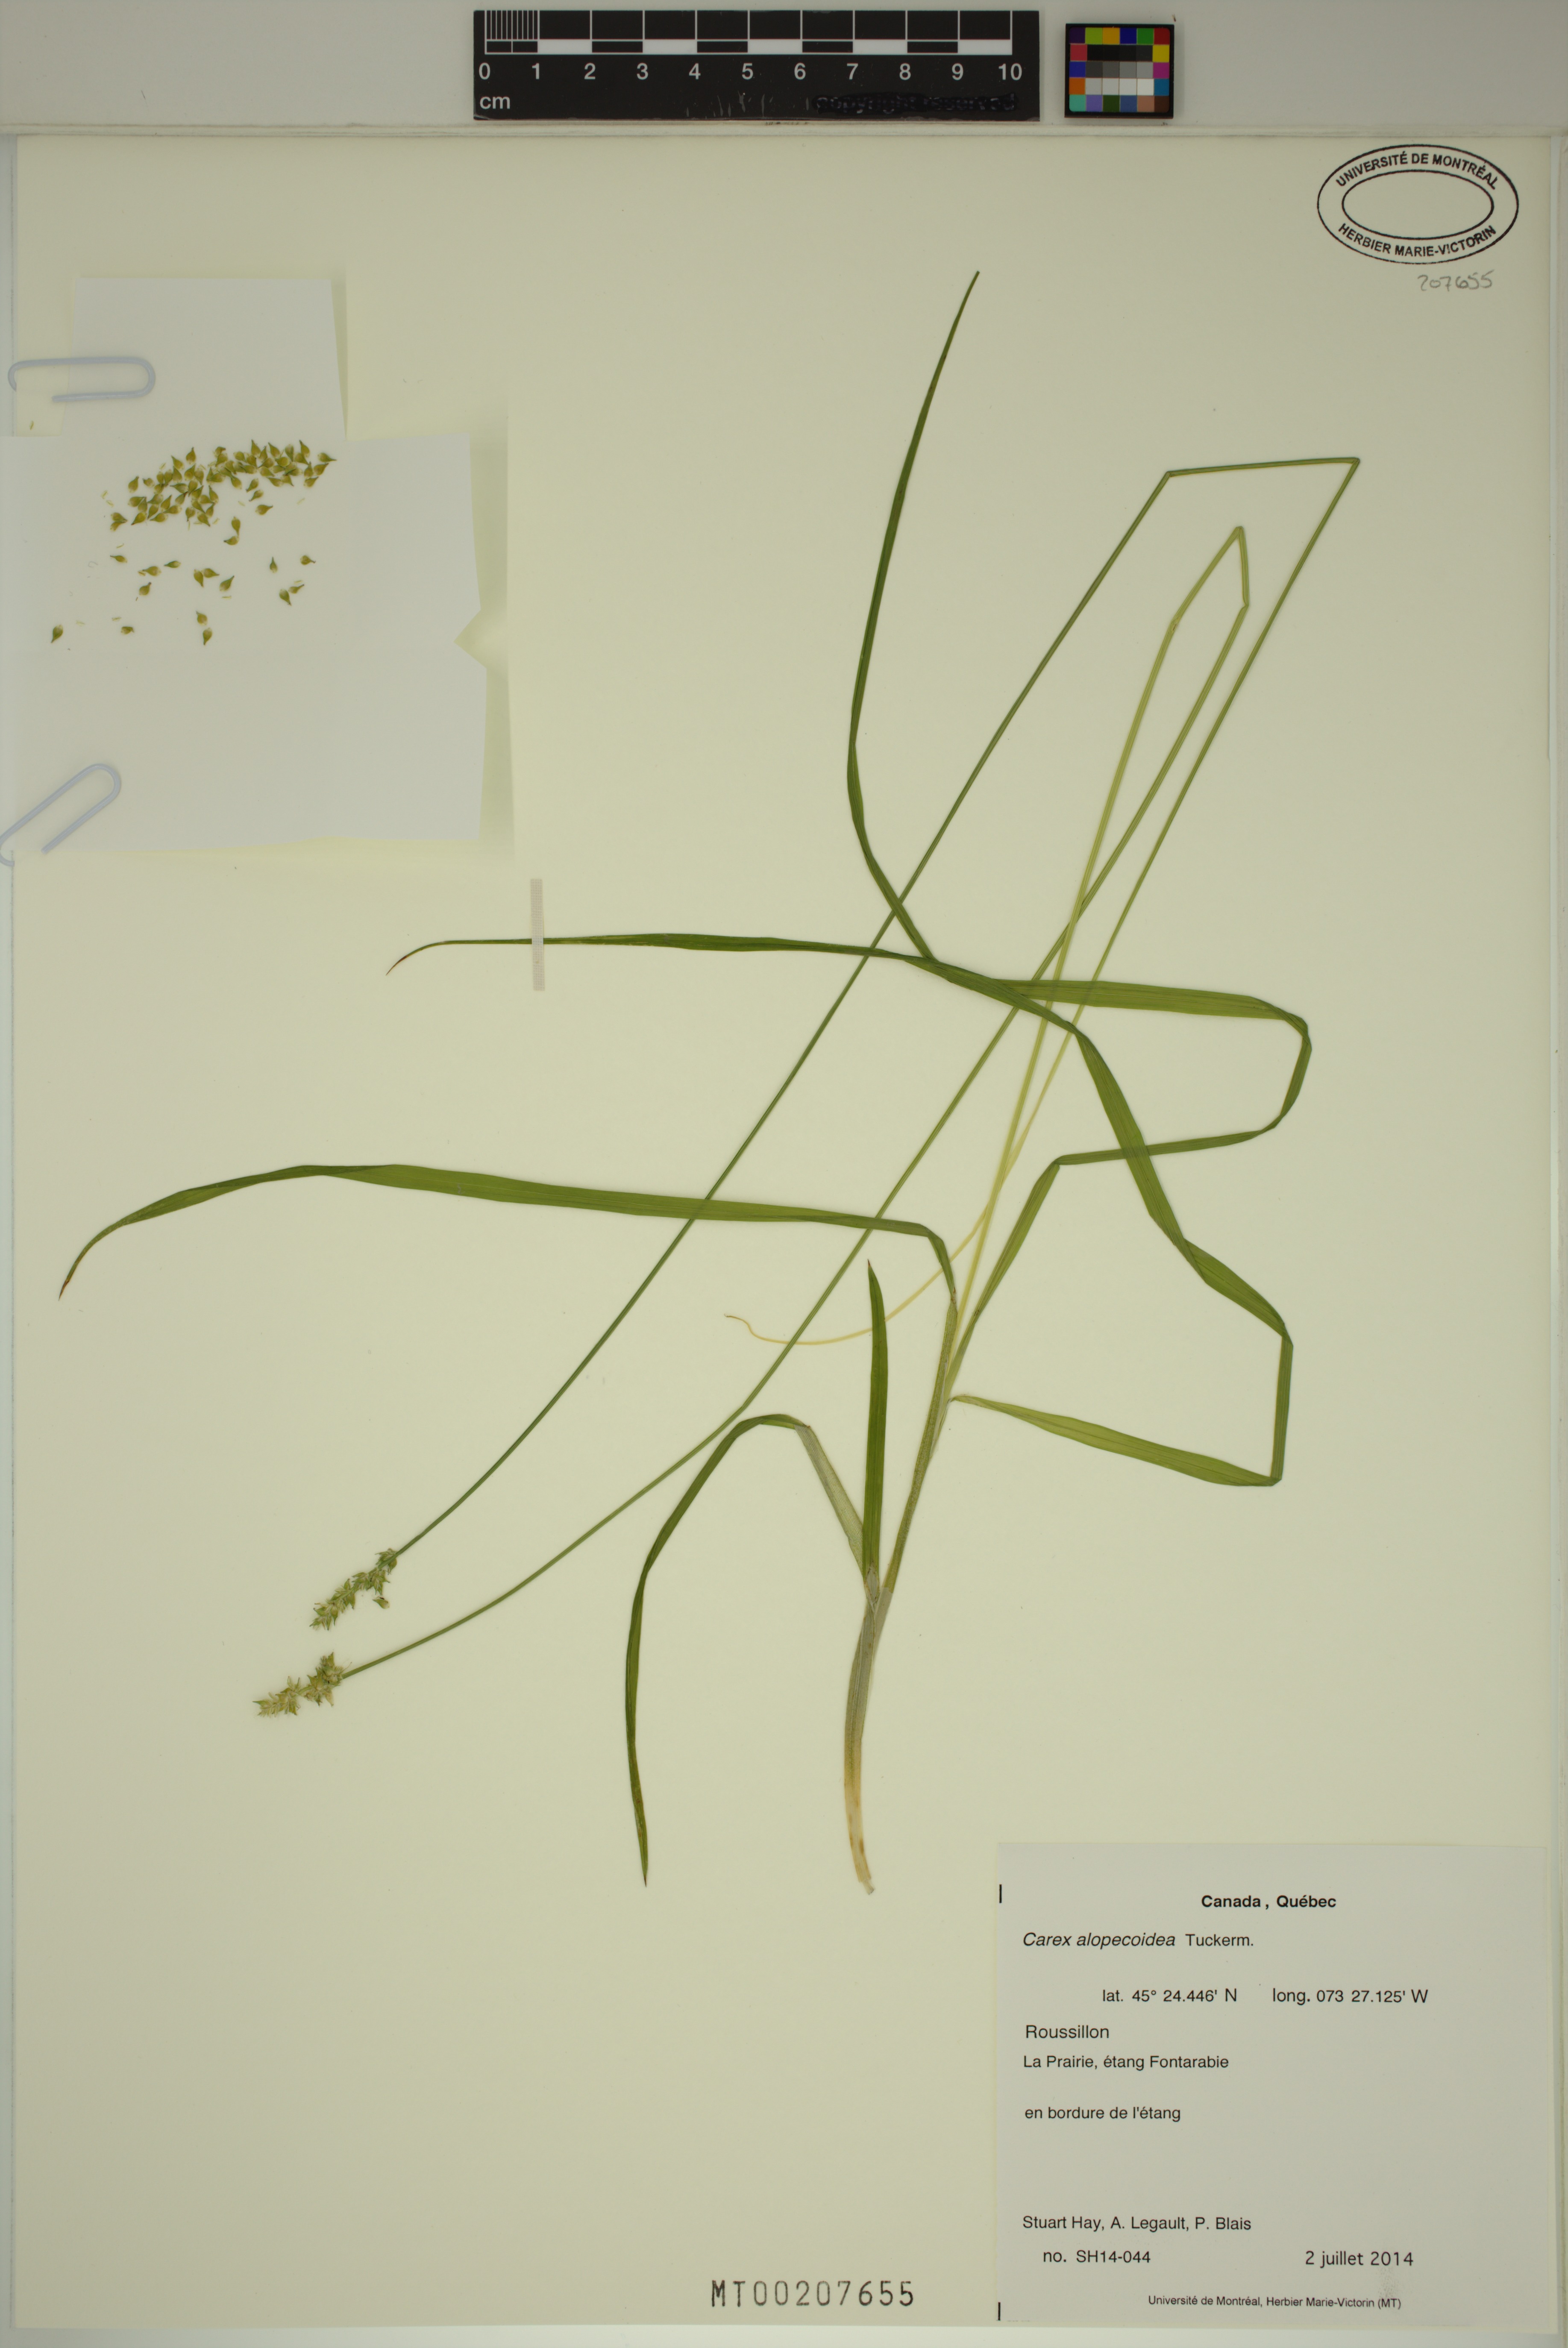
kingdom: Plantae
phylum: Tracheophyta
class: Liliopsida
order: Poales
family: Cyperaceae
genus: Carex
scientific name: Carex alopecoidea
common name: Brown-headed fox sedge
